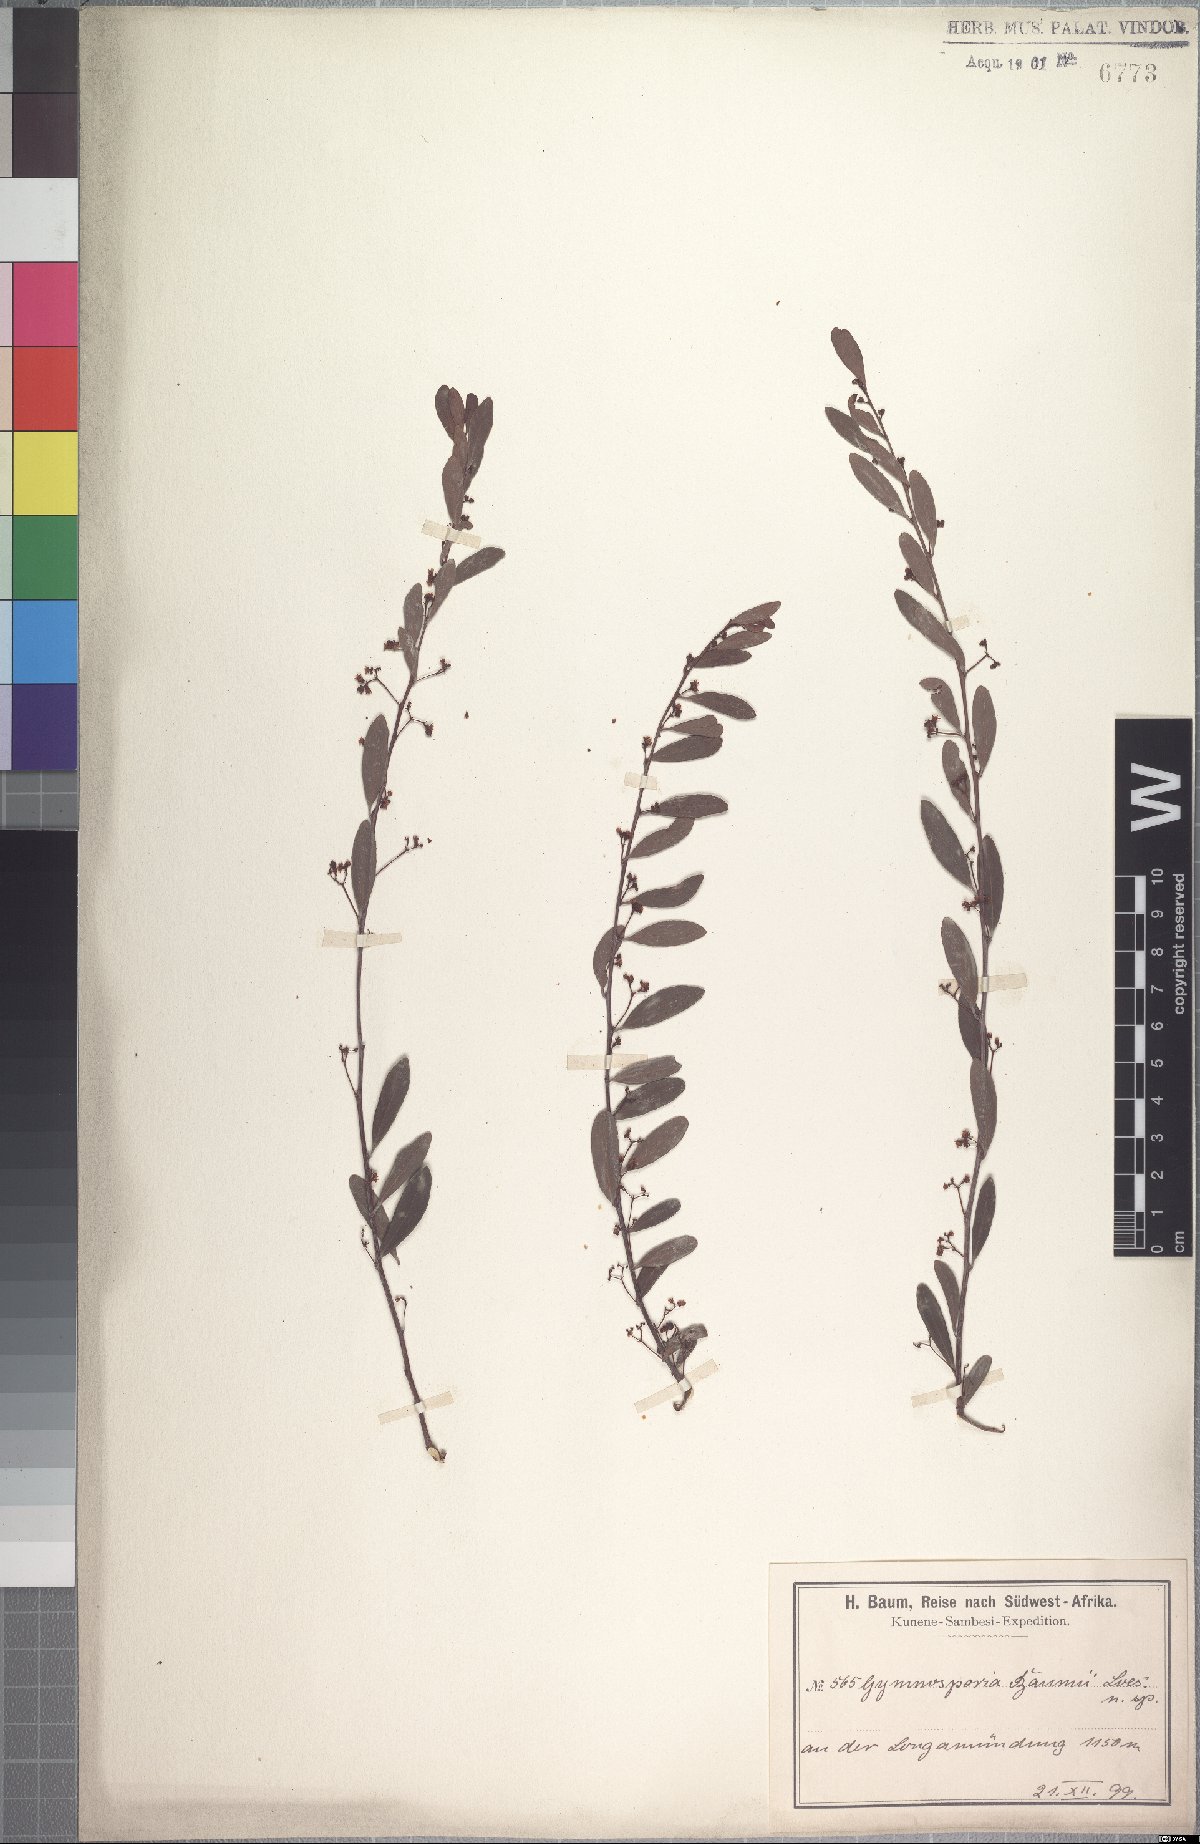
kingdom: Plantae
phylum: Tracheophyta
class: Magnoliopsida
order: Celastrales
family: Celastraceae
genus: Gymnosporia
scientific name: Gymnosporia senegalensis
